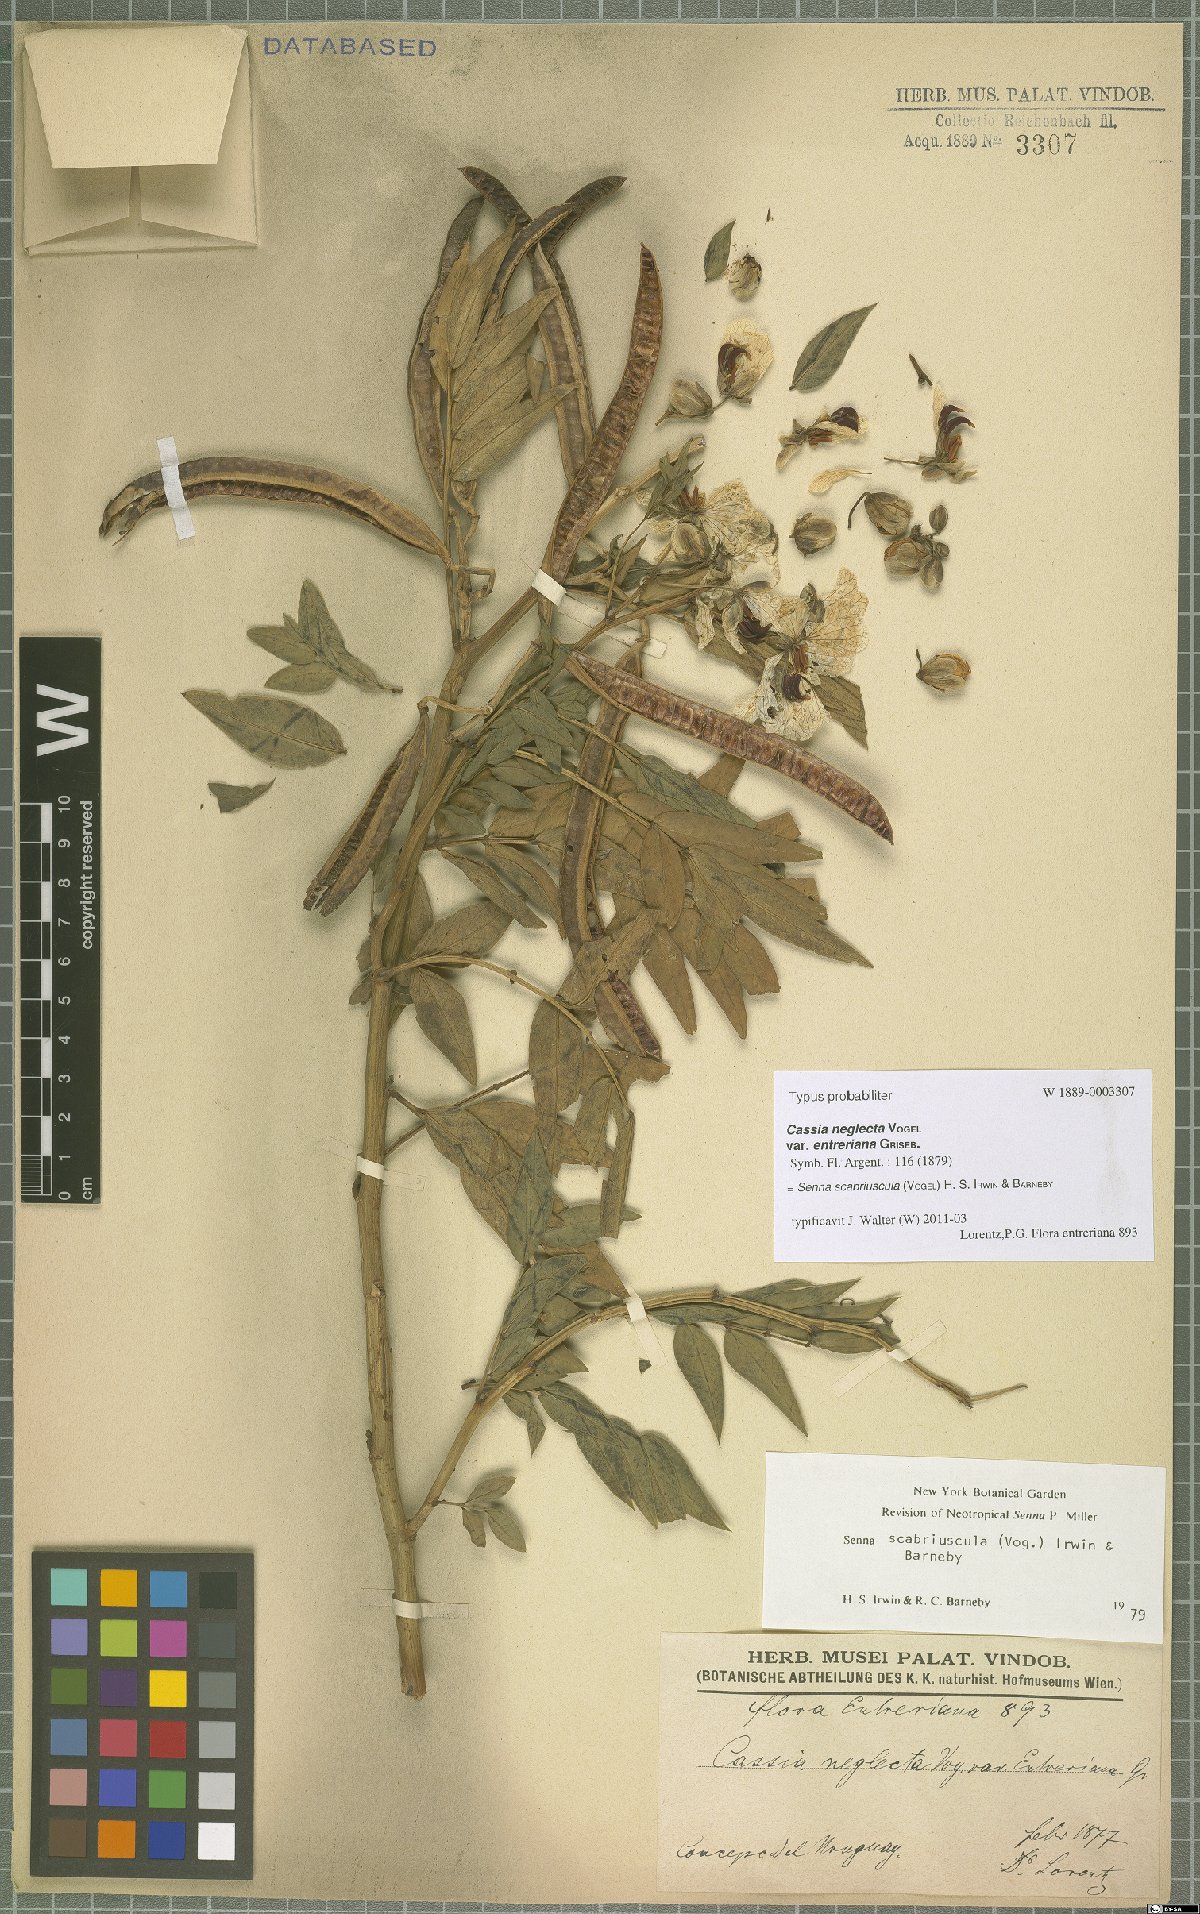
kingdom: Plantae
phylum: Tracheophyta
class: Magnoliopsida
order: Fabales
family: Fabaceae
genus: Senna
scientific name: Senna scabriuscula
